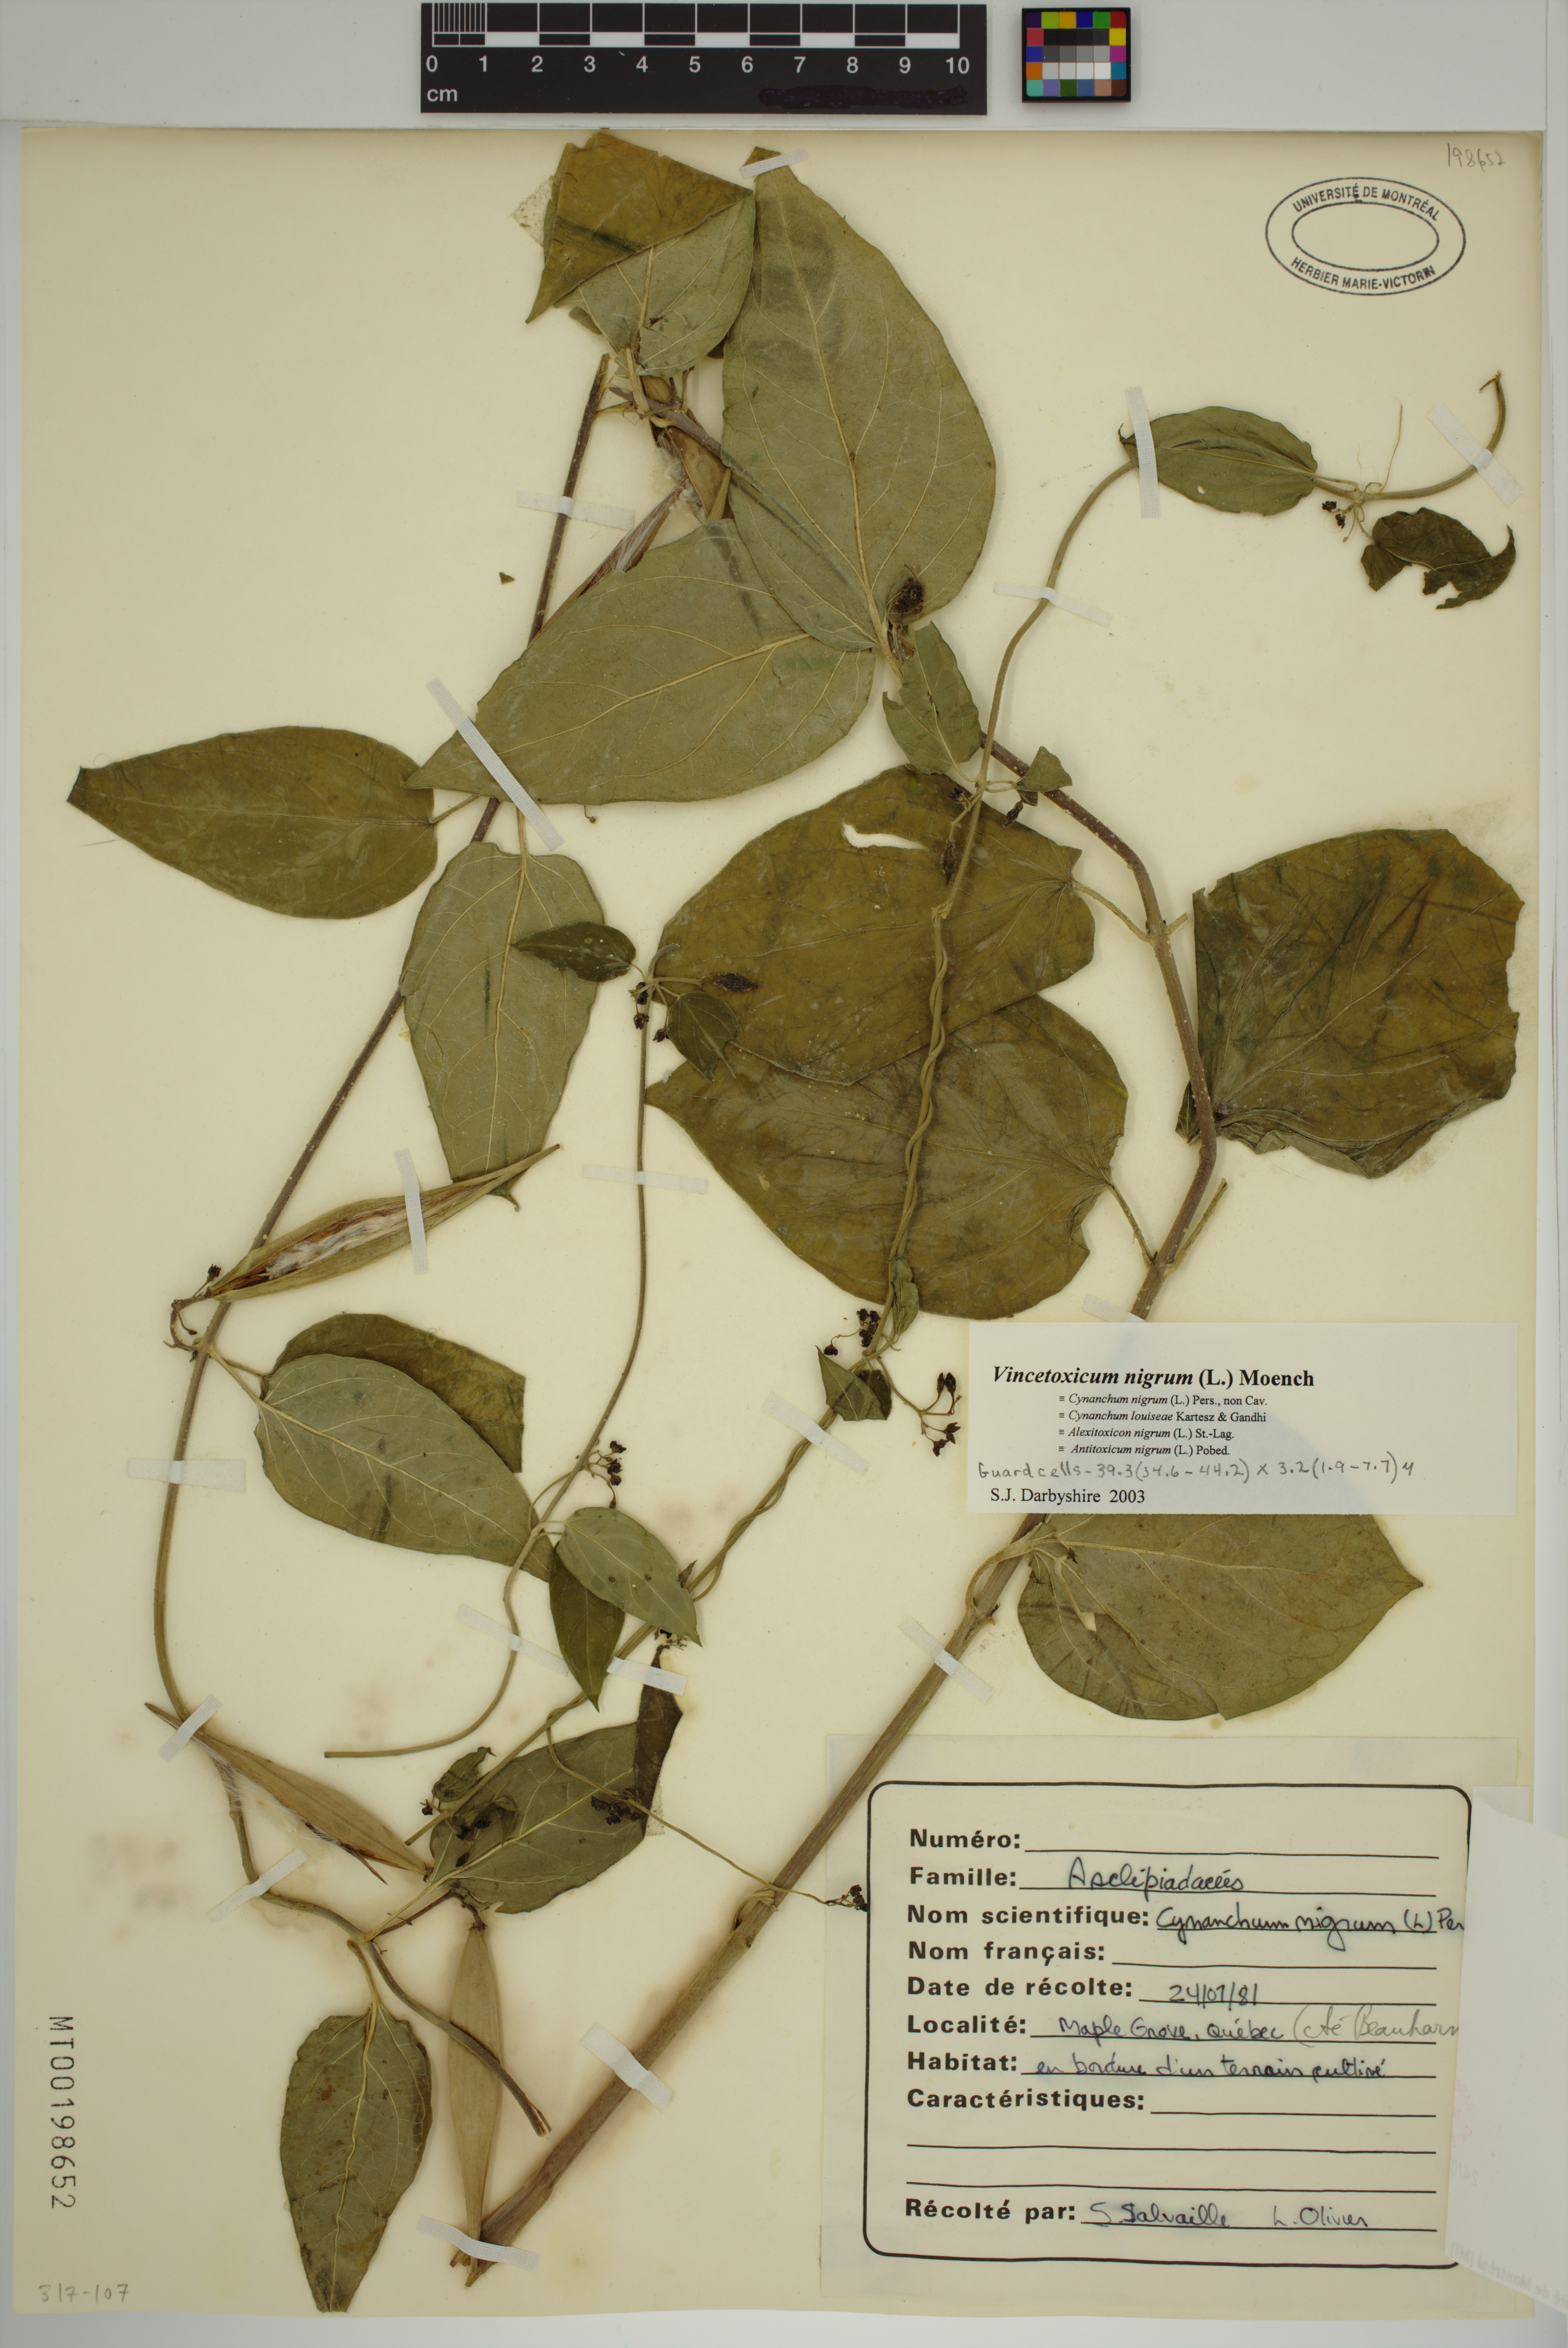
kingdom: Plantae
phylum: Tracheophyta
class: Magnoliopsida
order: Gentianales
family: Apocynaceae
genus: Vincetoxicum
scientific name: Vincetoxicum nigrum
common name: Black swallow-wort
